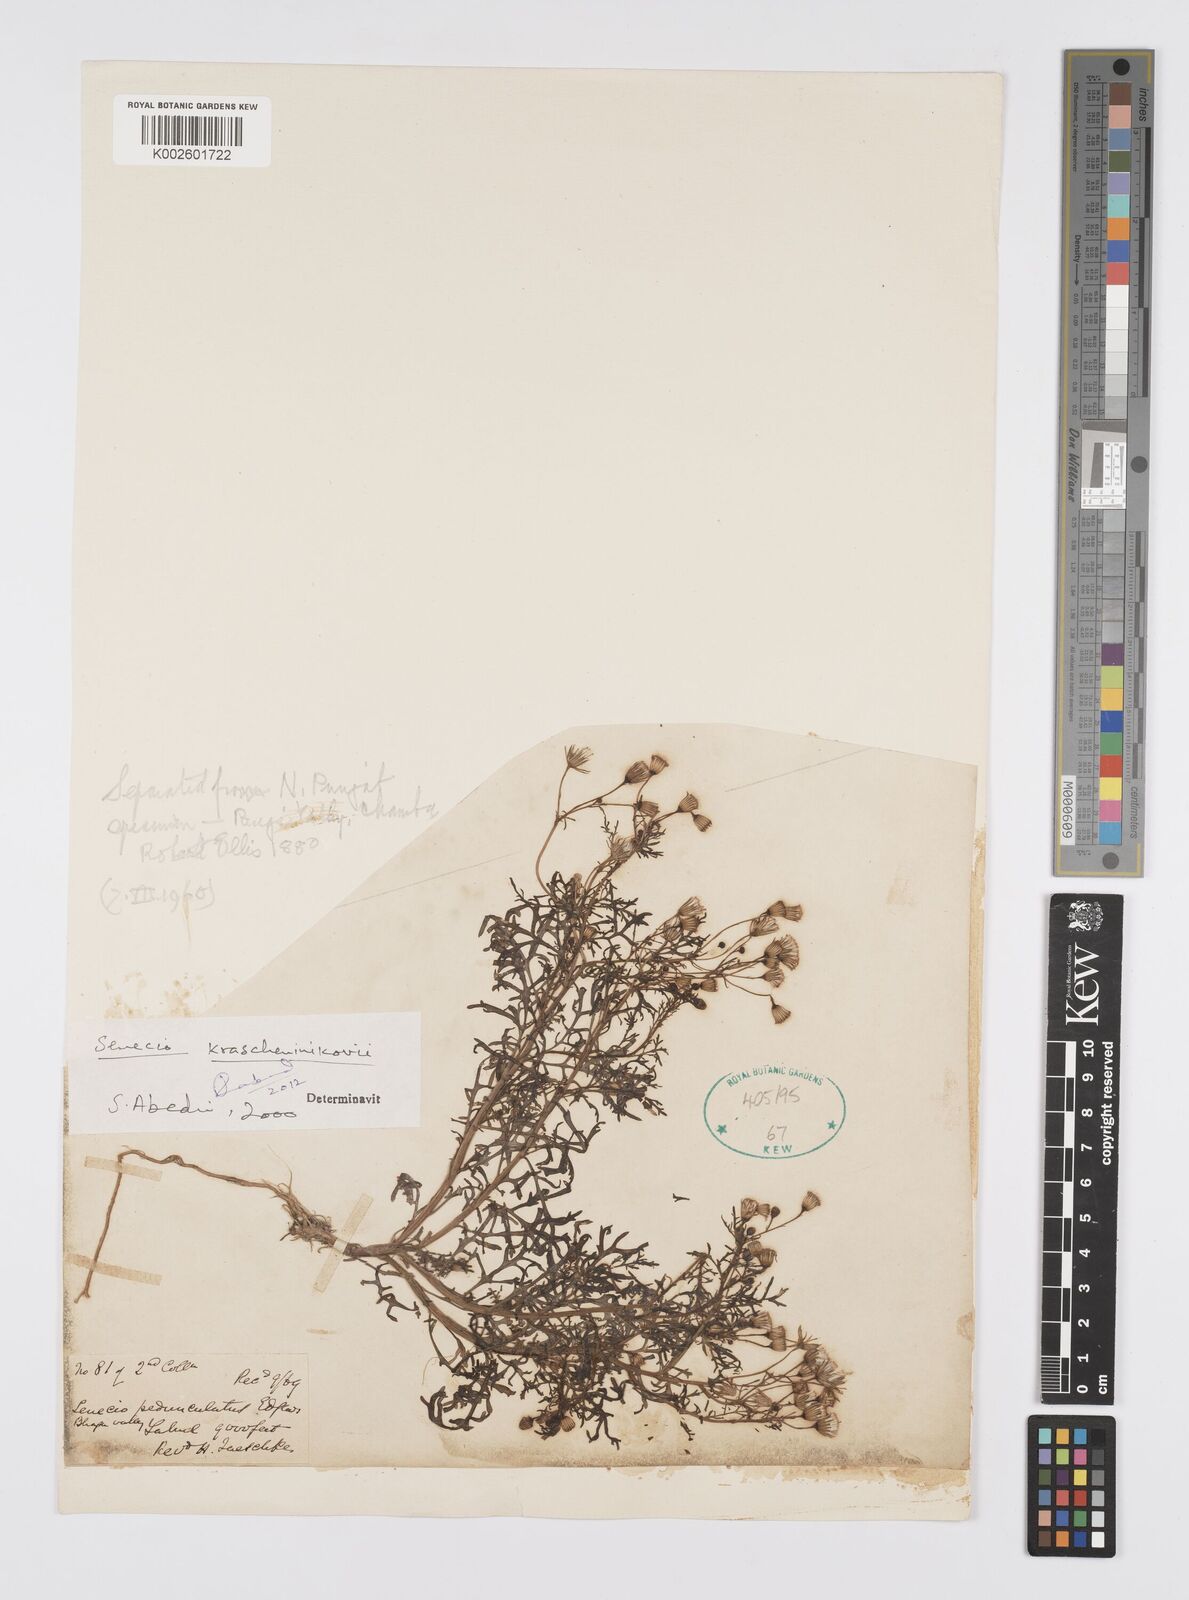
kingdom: Plantae
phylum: Tracheophyta
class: Magnoliopsida
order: Asterales
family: Asteraceae
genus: Senecio
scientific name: Senecio krascheninnikovii
